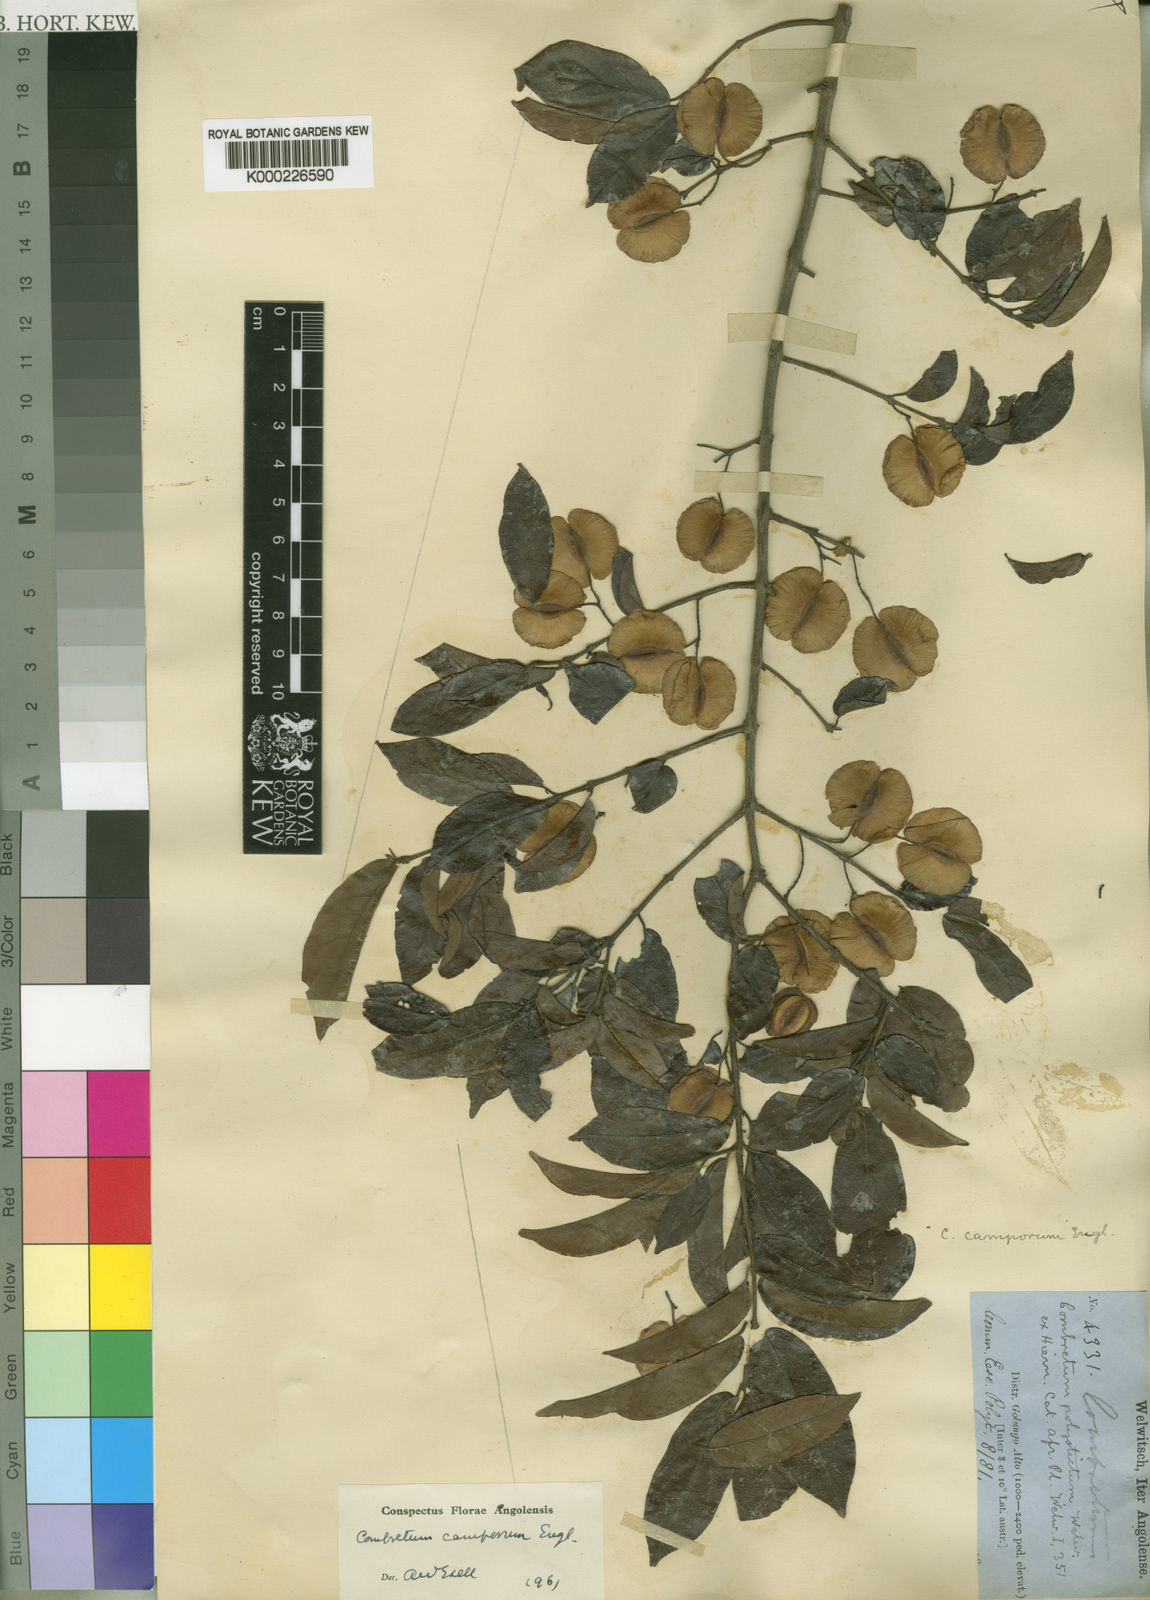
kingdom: Plantae
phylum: Tracheophyta
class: Magnoliopsida
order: Myrtales
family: Combretaceae
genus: Combretum
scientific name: Combretum camporum
